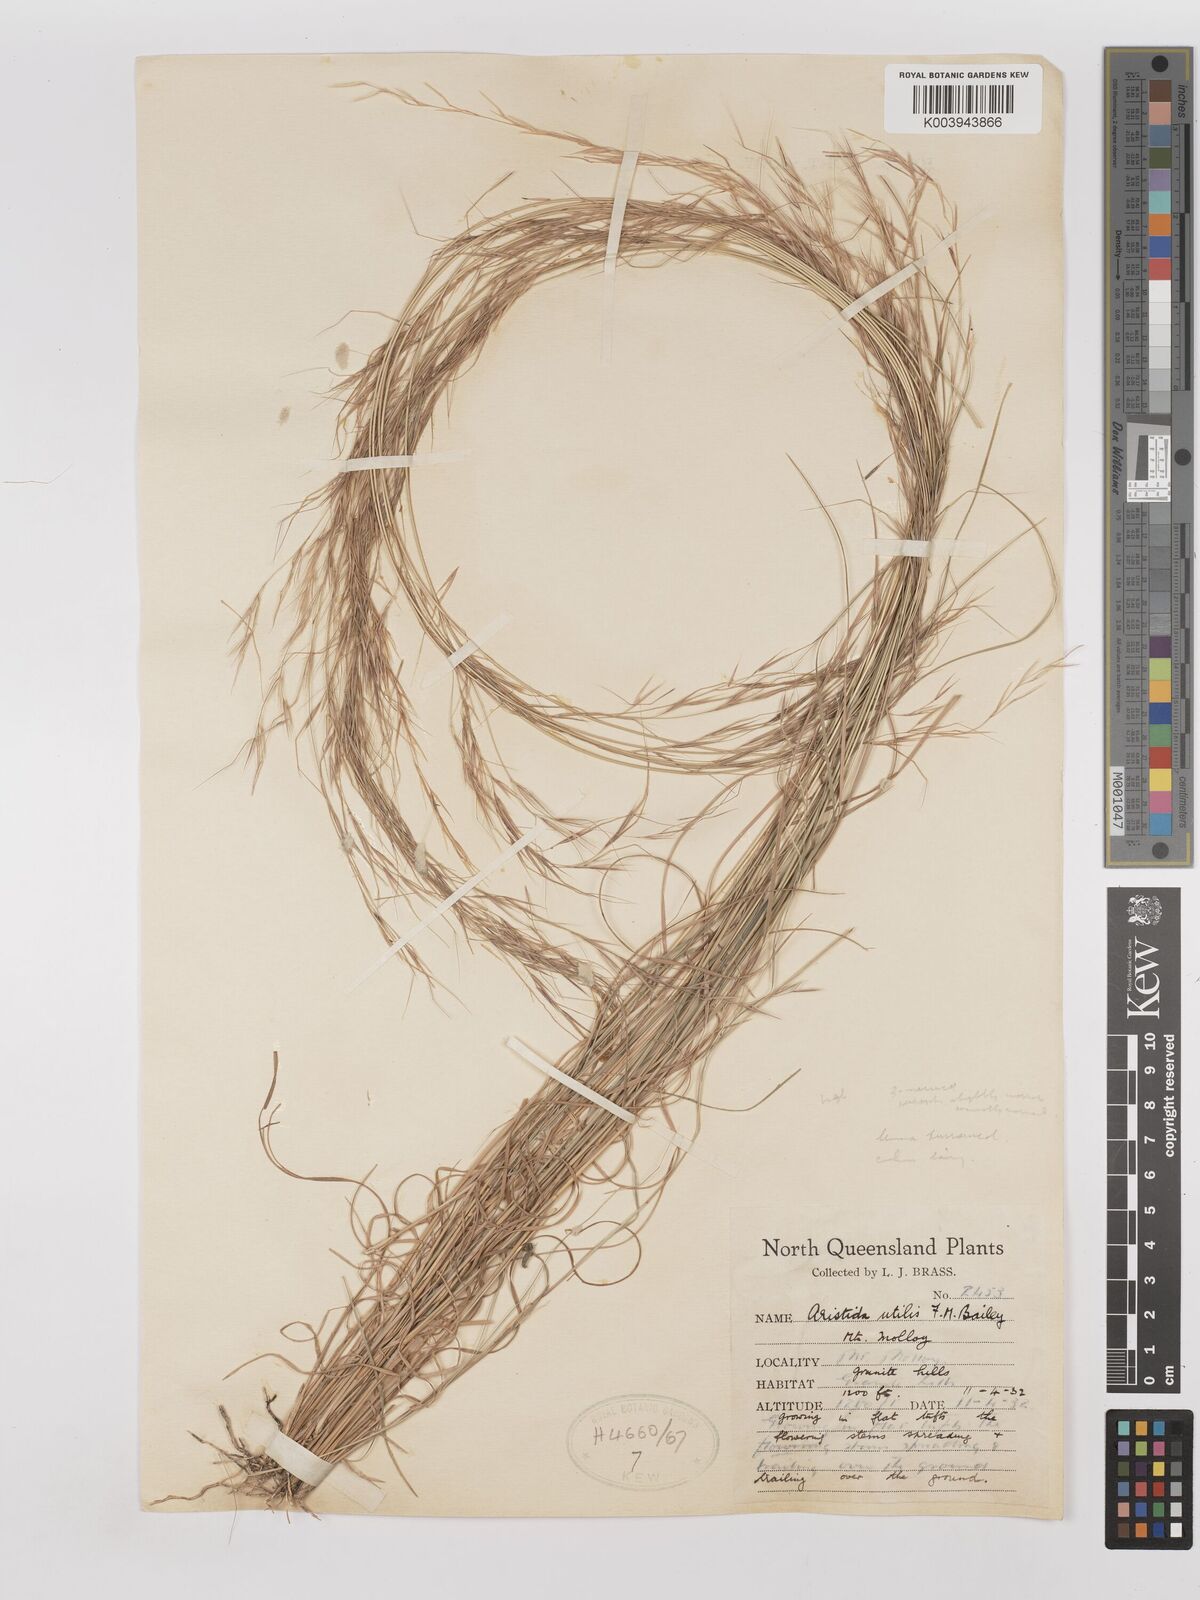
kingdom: Plantae
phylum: Tracheophyta
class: Liliopsida
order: Poales
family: Poaceae
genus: Aristida
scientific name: Aristida utilis
